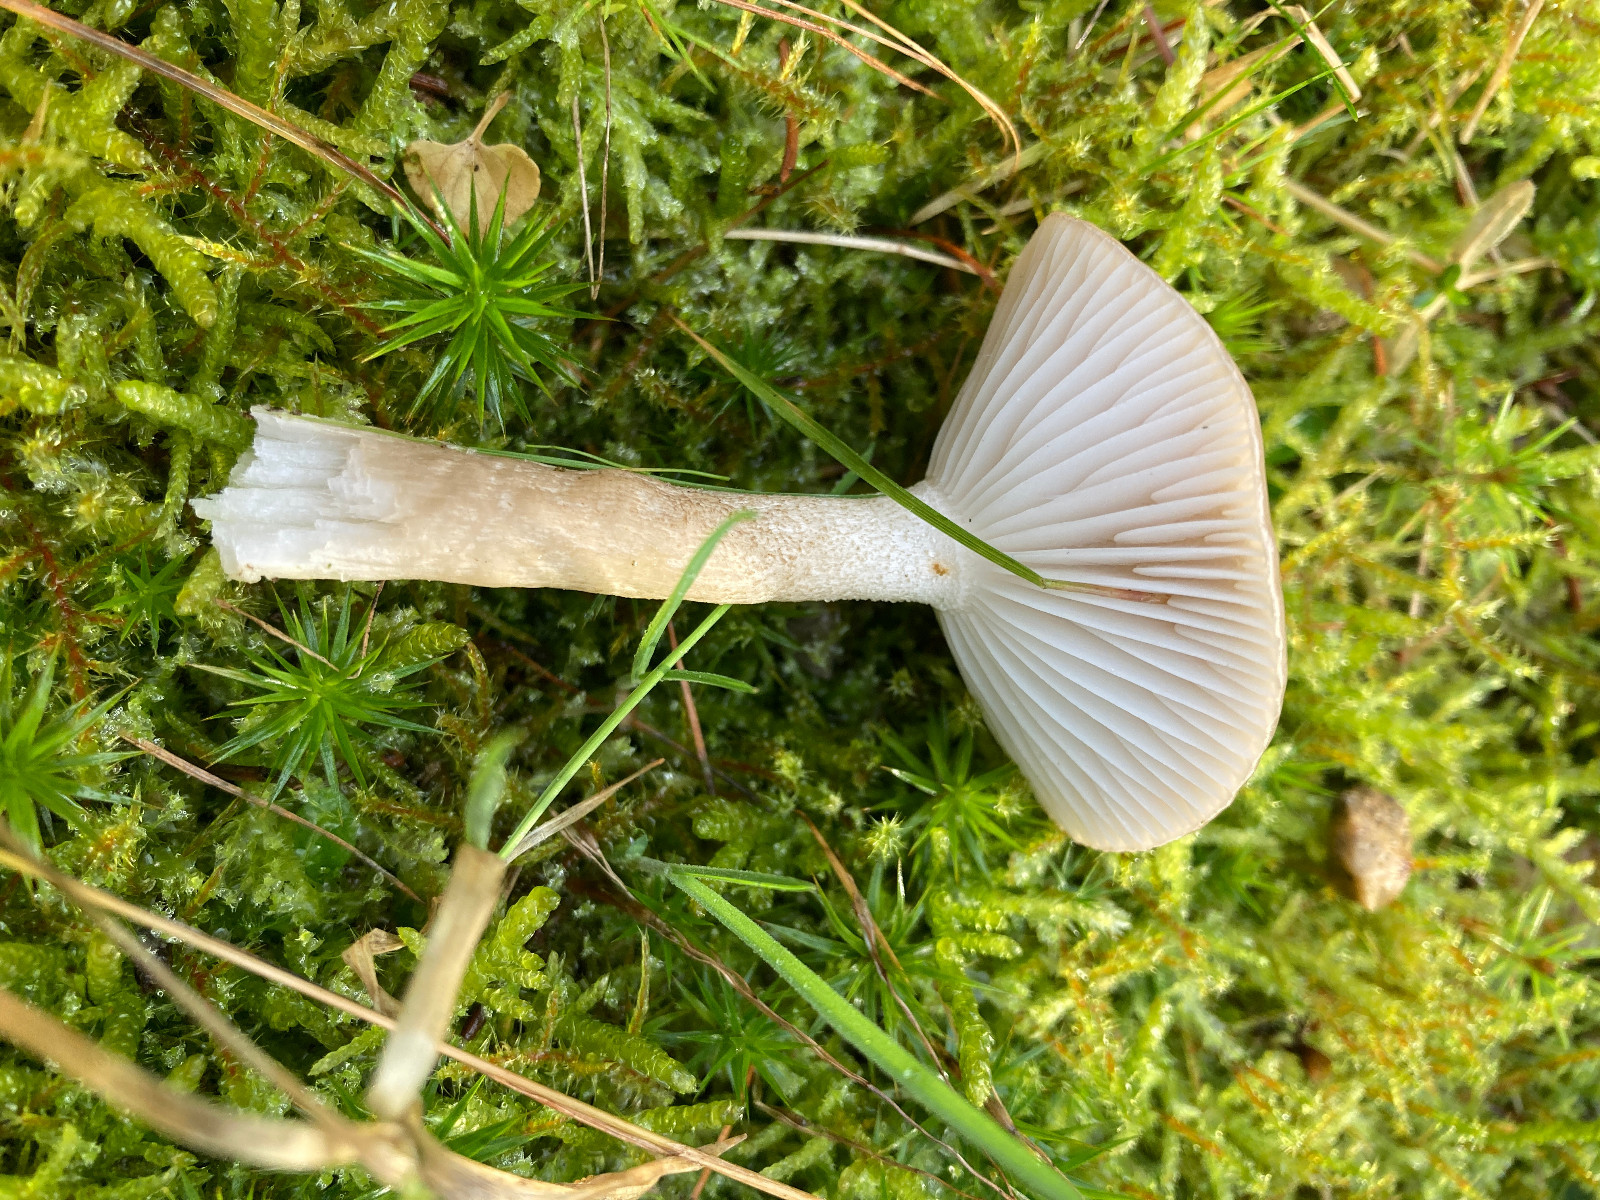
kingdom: Fungi
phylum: Basidiomycota
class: Agaricomycetes
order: Agaricales
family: Hygrophoraceae
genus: Hygrophorus
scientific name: Hygrophorus agathosmus
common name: vellugtende sneglehat
